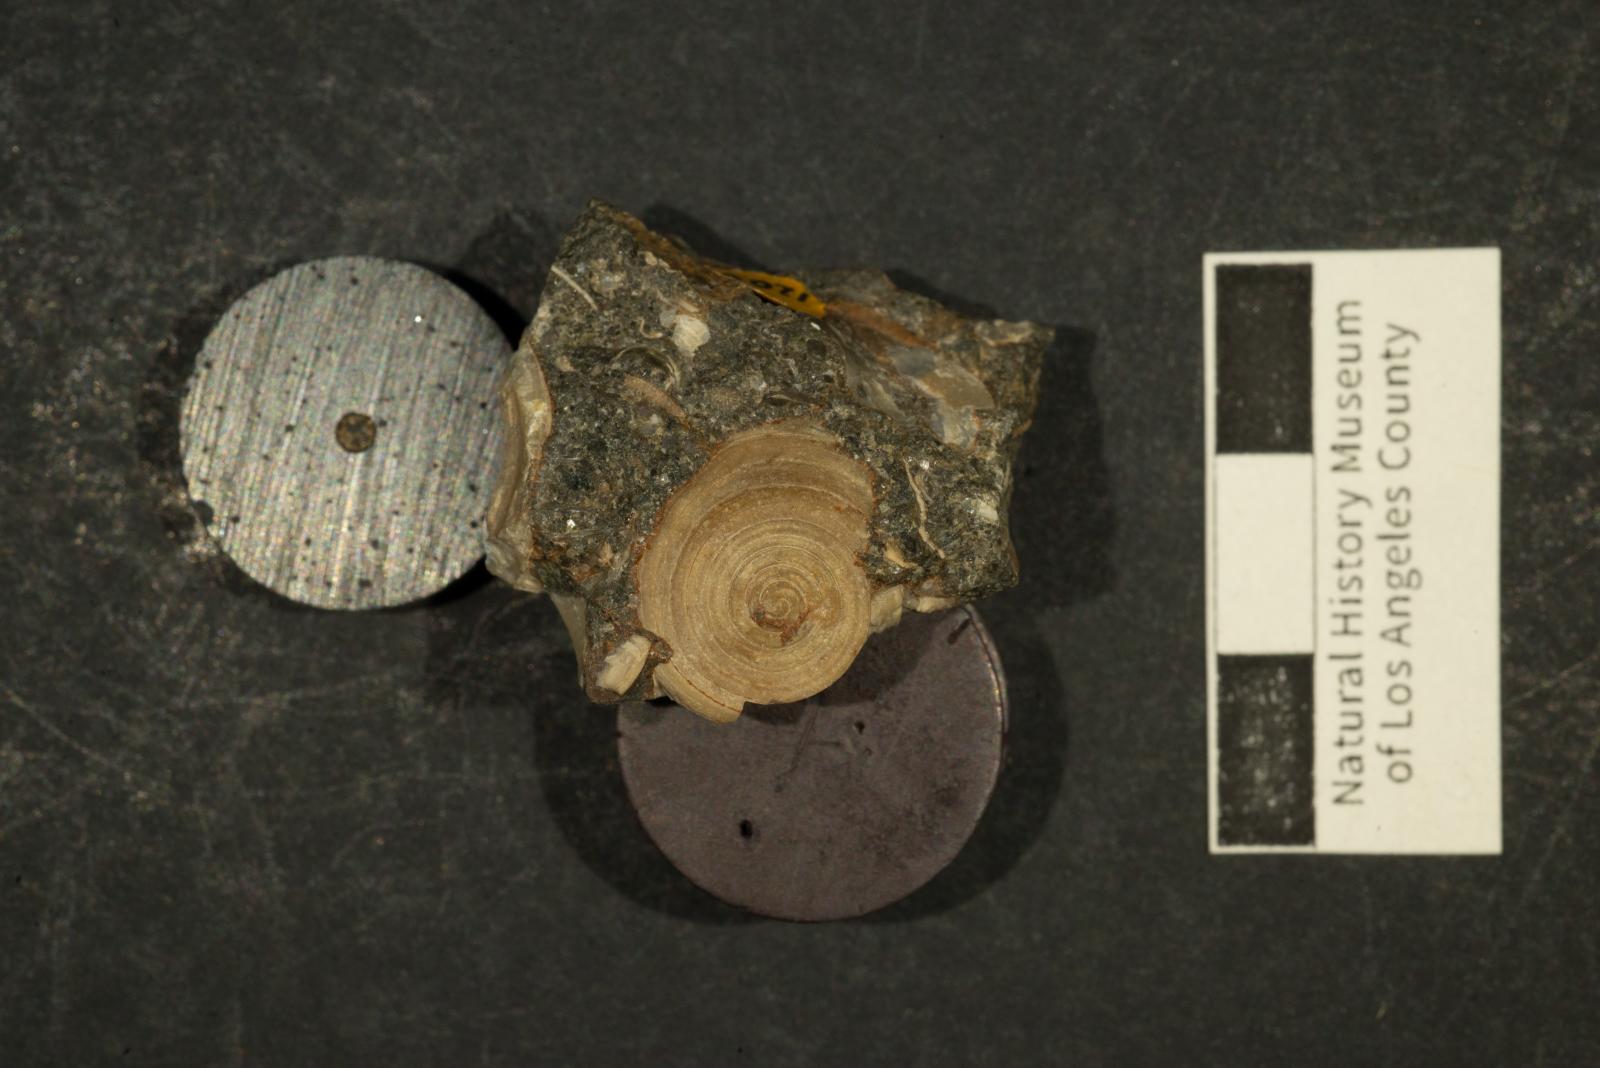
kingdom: Animalia
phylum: Mollusca
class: Gastropoda
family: Acteonellidae
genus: Acteonella
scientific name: Acteonella oviformis
